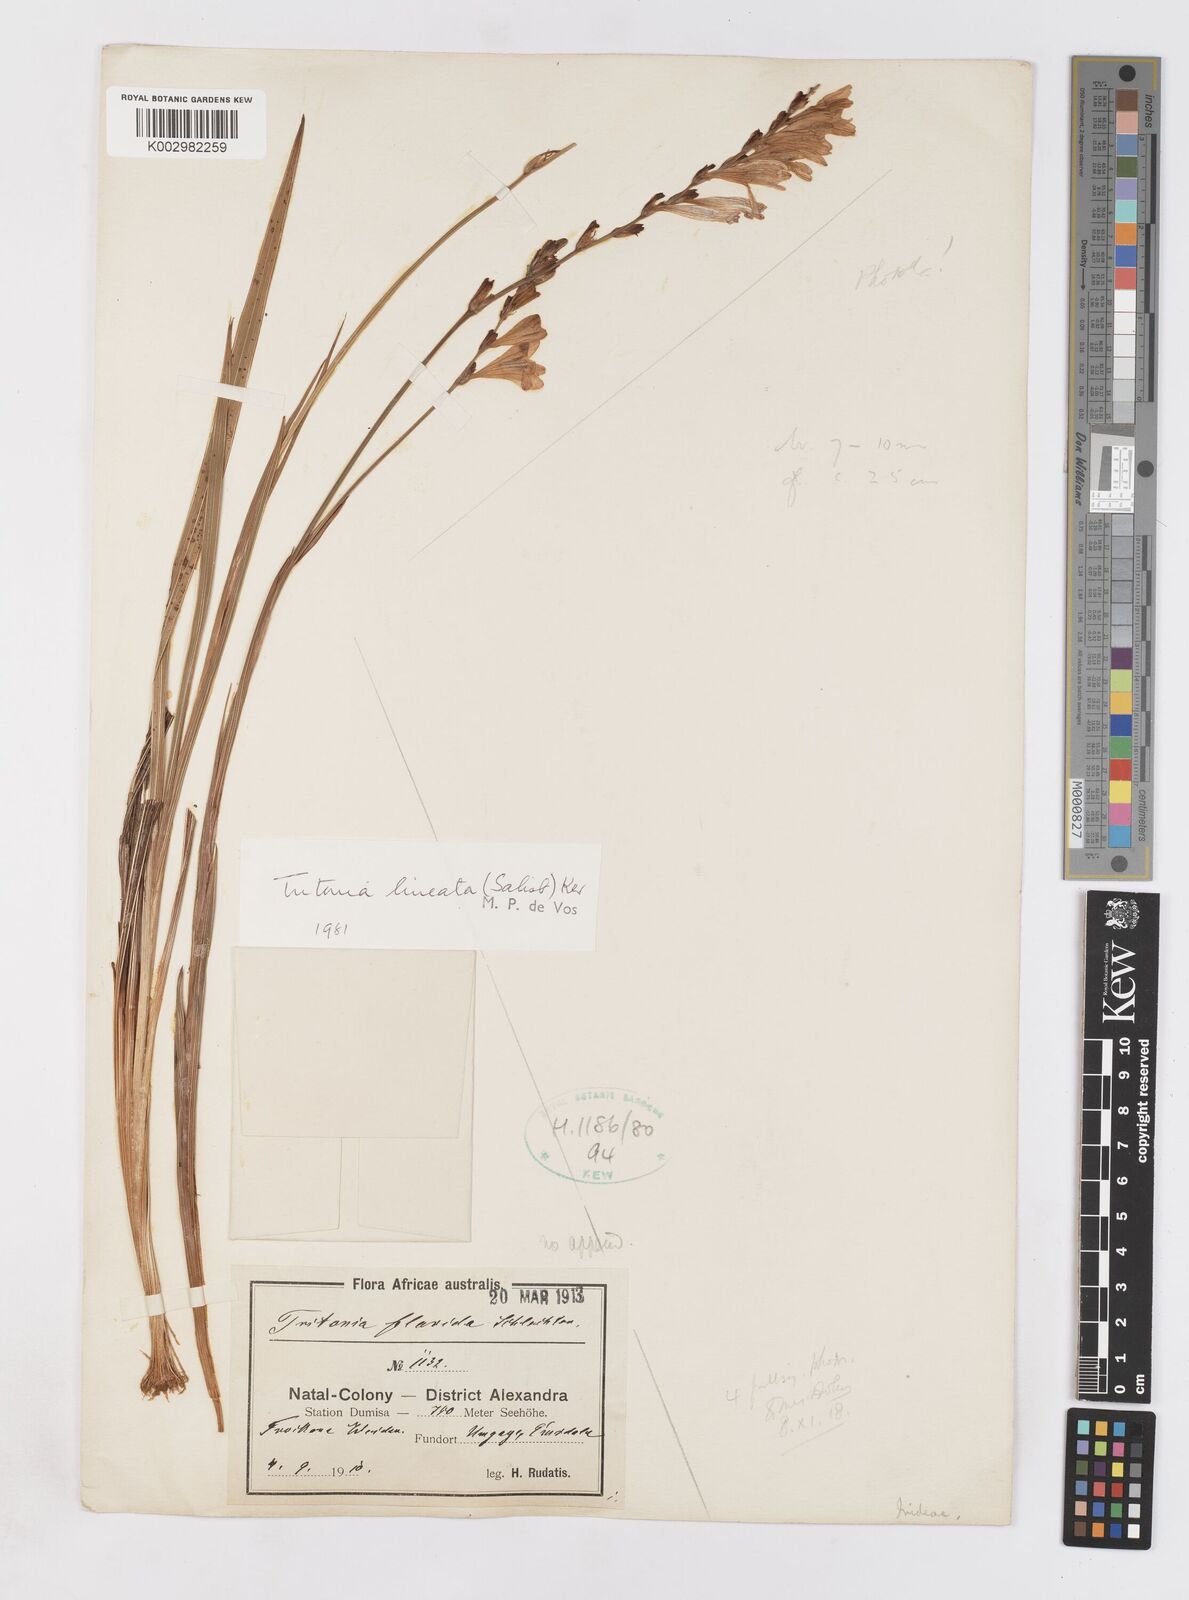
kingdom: Plantae
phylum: Tracheophyta
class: Liliopsida
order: Asparagales
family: Iridaceae
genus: Tritonia
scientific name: Tritonia gladiolaris
